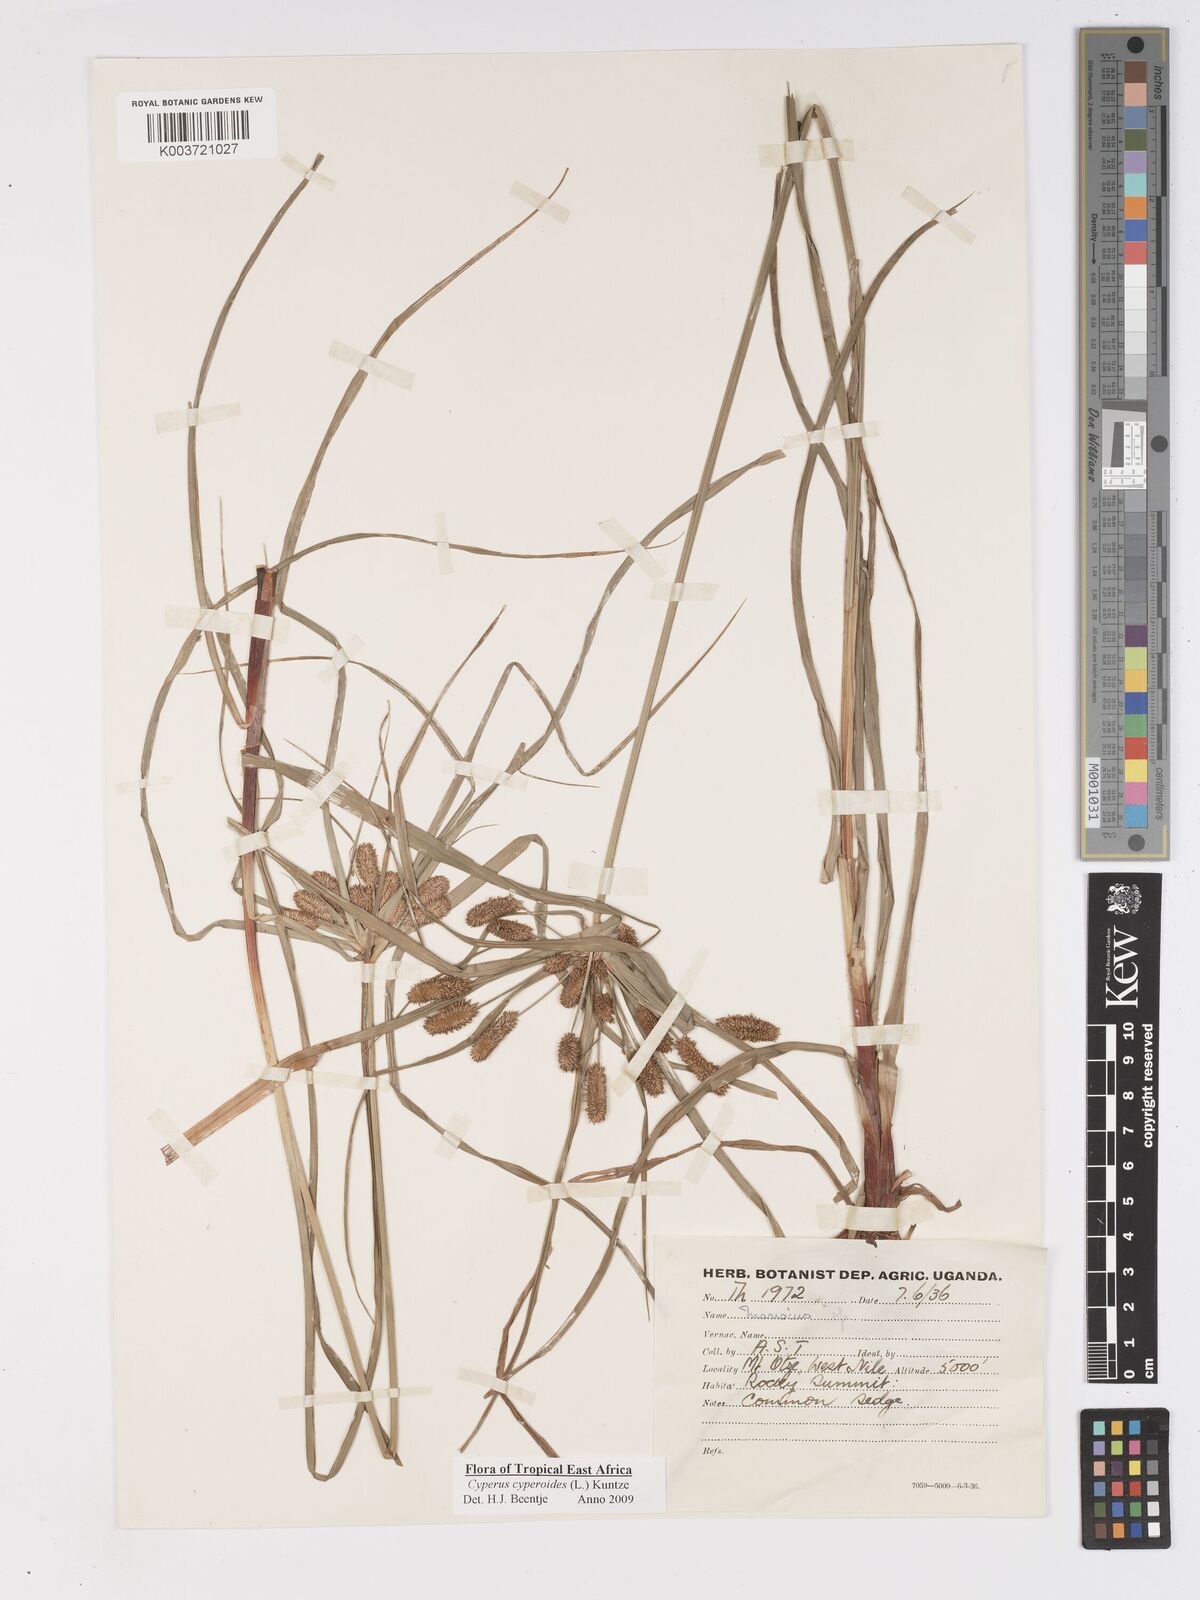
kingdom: Plantae
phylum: Tracheophyta
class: Liliopsida
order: Poales
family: Cyperaceae
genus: Cyperus
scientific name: Cyperus cyperoides
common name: Pacific island flat sedge
